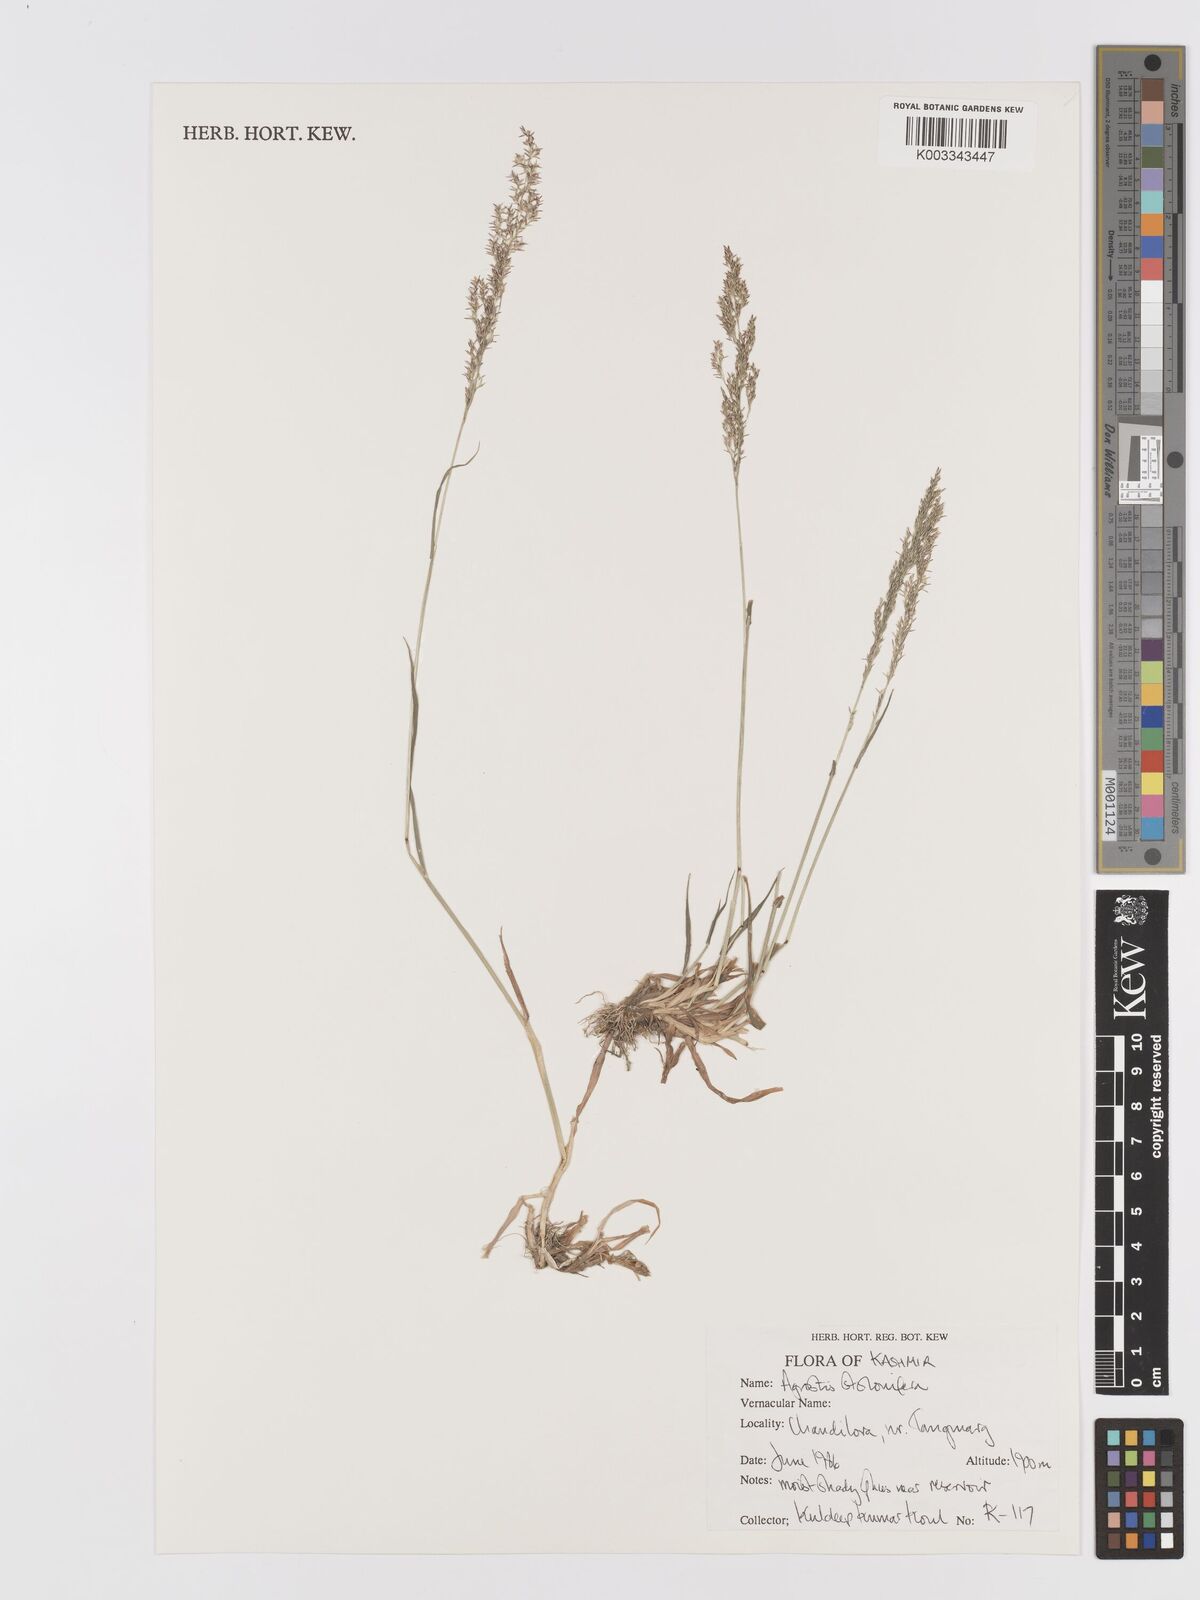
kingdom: Plantae
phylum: Tracheophyta
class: Liliopsida
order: Poales
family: Poaceae
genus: Agrostis
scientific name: Agrostis stolonifera
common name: Creeping bentgrass
